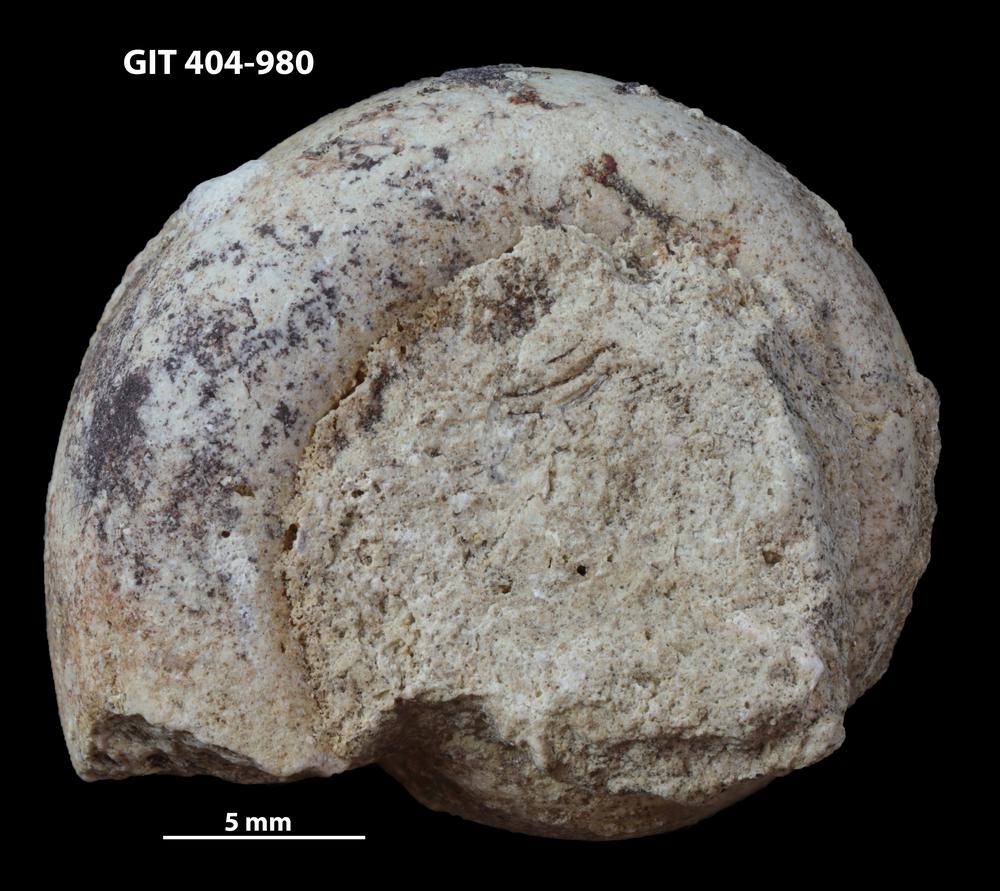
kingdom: Animalia
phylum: Mollusca
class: Gastropoda
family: Lesueurillidae
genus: Mestoronema
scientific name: Mestoronema Euomphalus marginalis
